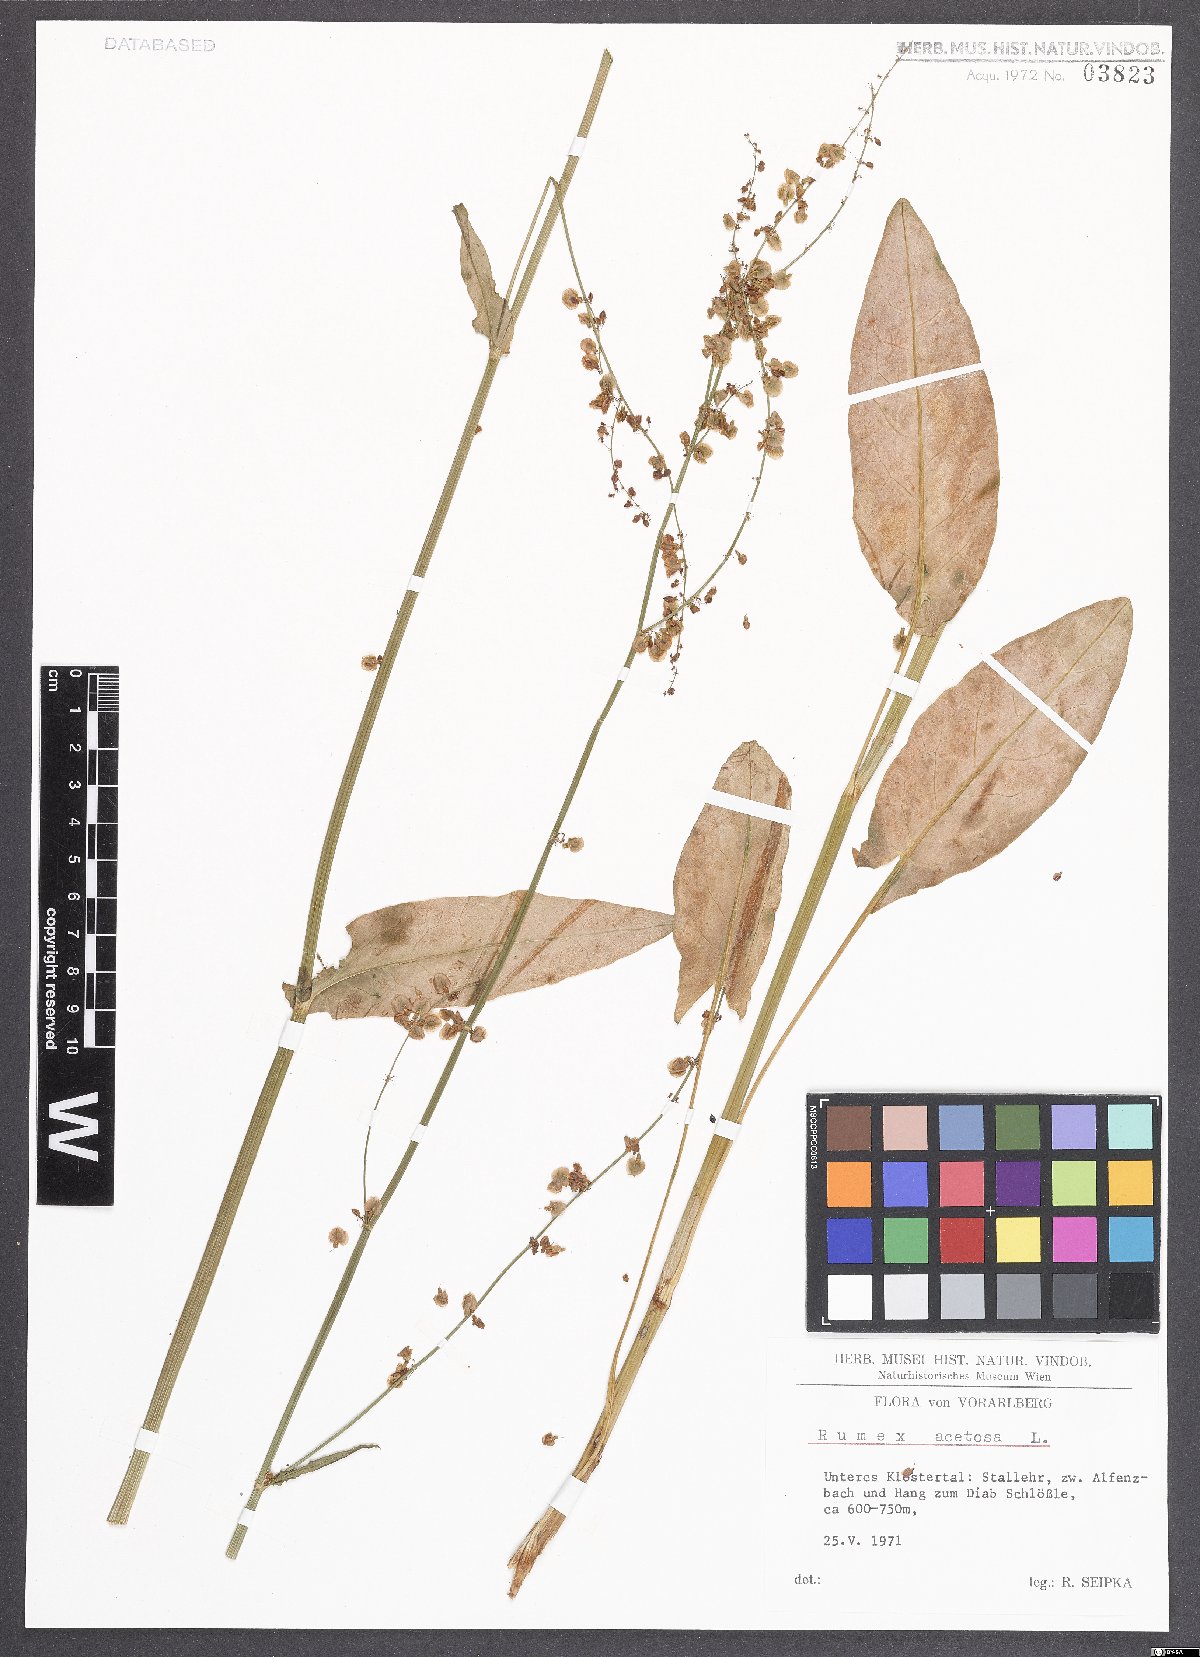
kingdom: Plantae
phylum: Tracheophyta
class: Magnoliopsida
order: Caryophyllales
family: Polygonaceae
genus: Rumex
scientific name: Rumex acetosa
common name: Garden sorrel
